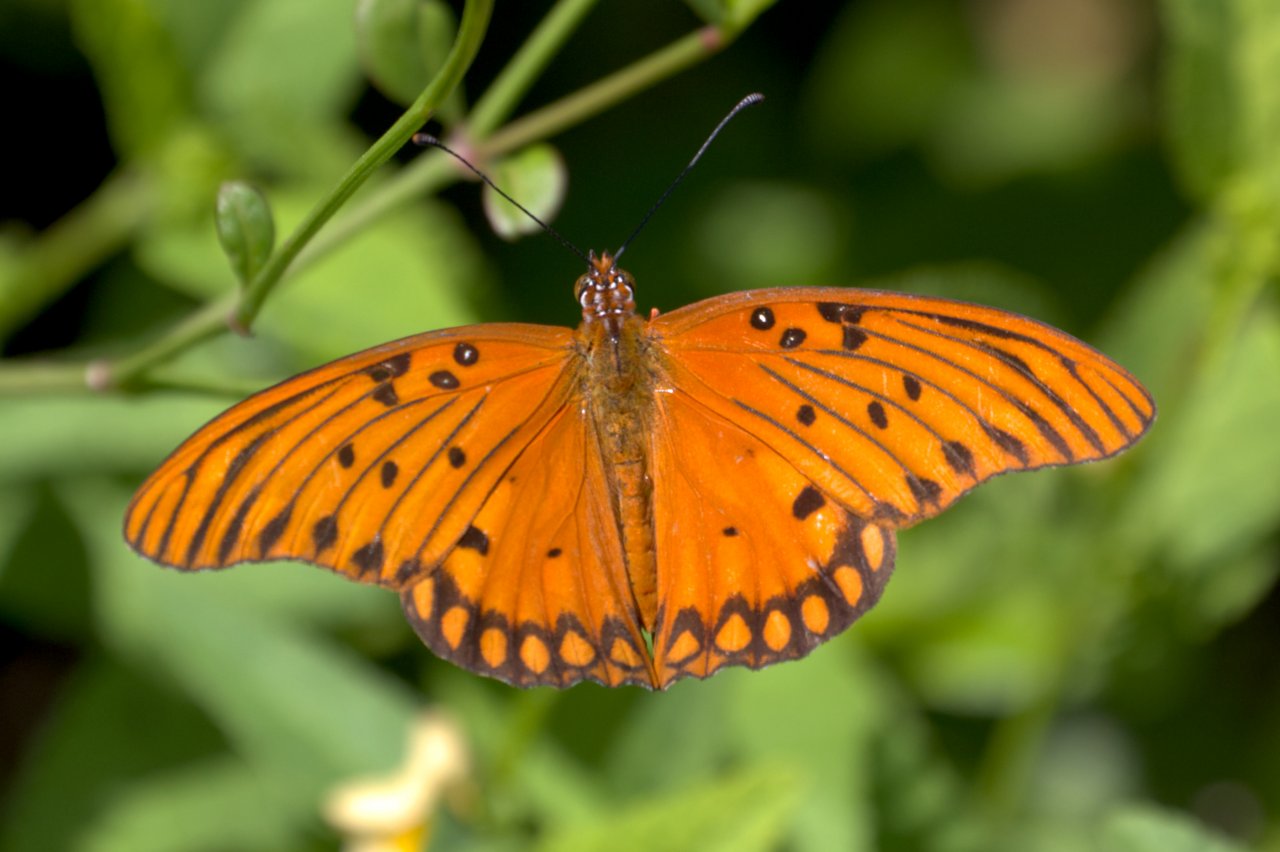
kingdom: Animalia
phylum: Arthropoda
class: Insecta
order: Lepidoptera
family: Nymphalidae
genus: Dione
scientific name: Dione vanillae
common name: Gulf Fritillary
